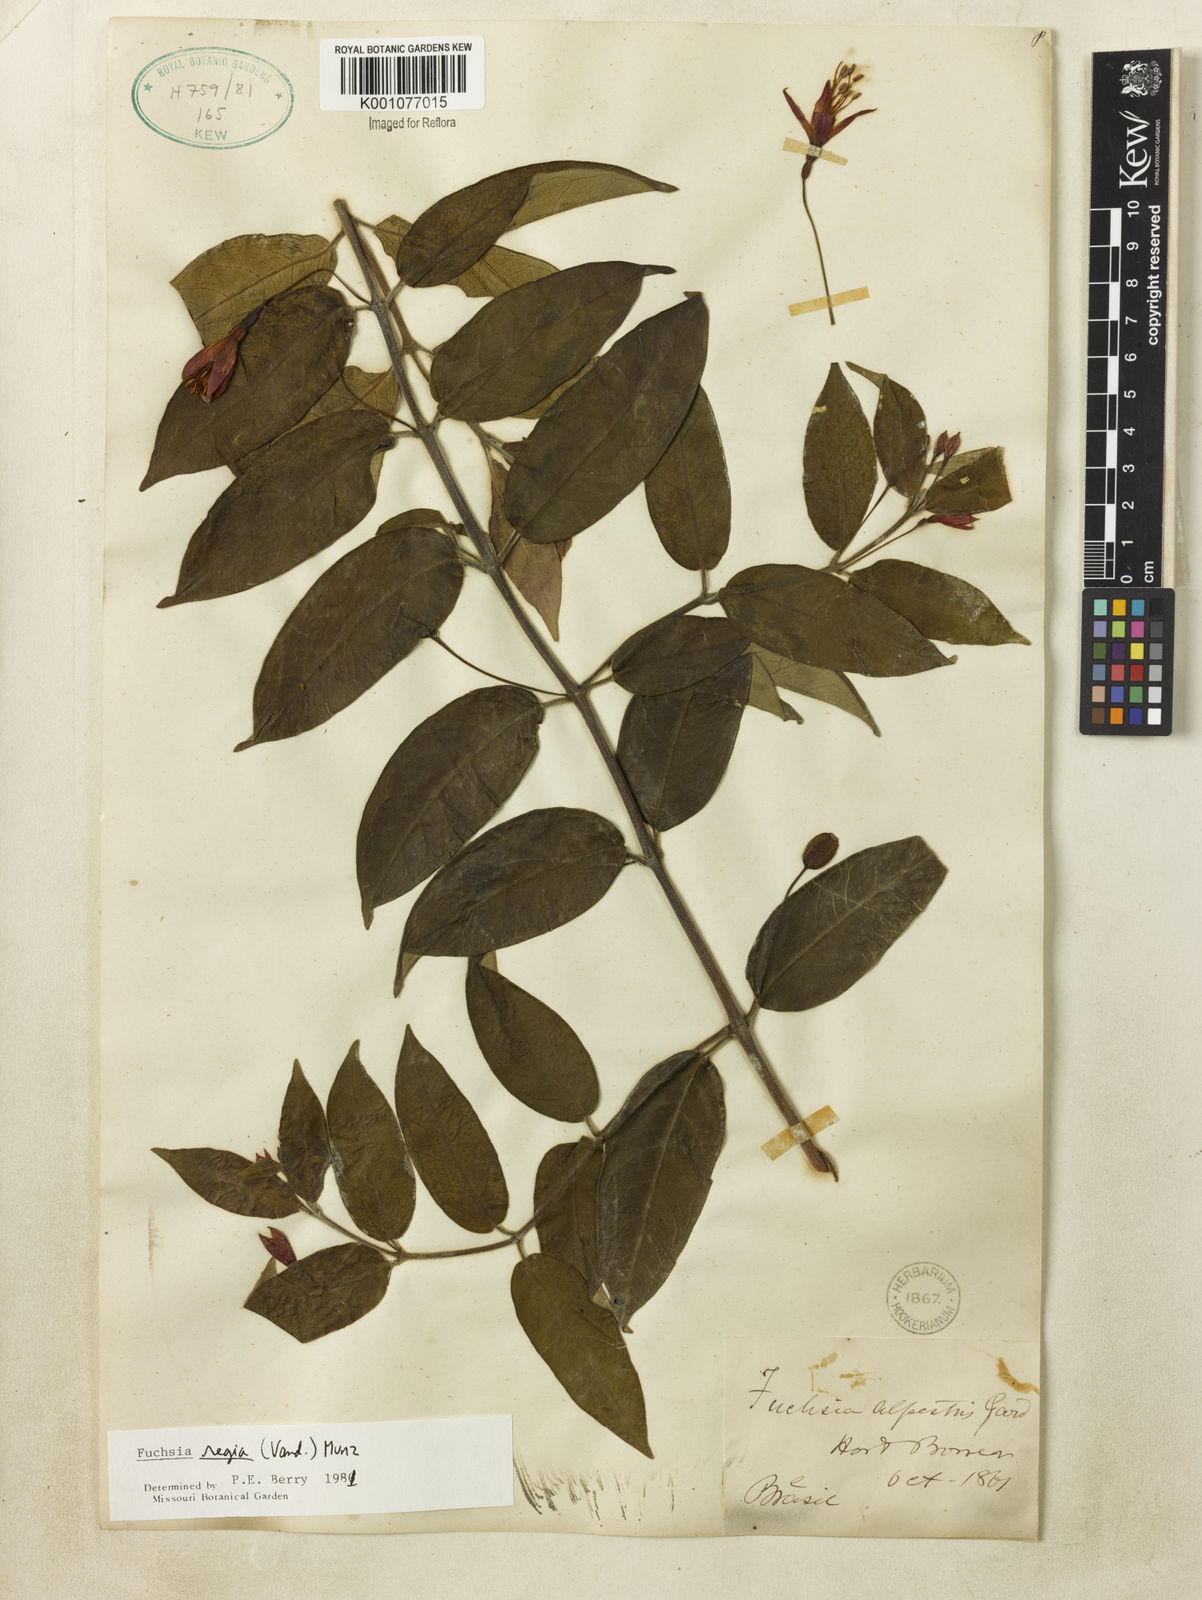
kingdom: Plantae
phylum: Tracheophyta
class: Magnoliopsida
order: Myrtales
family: Onagraceae
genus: Fuchsia
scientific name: Fuchsia regia
